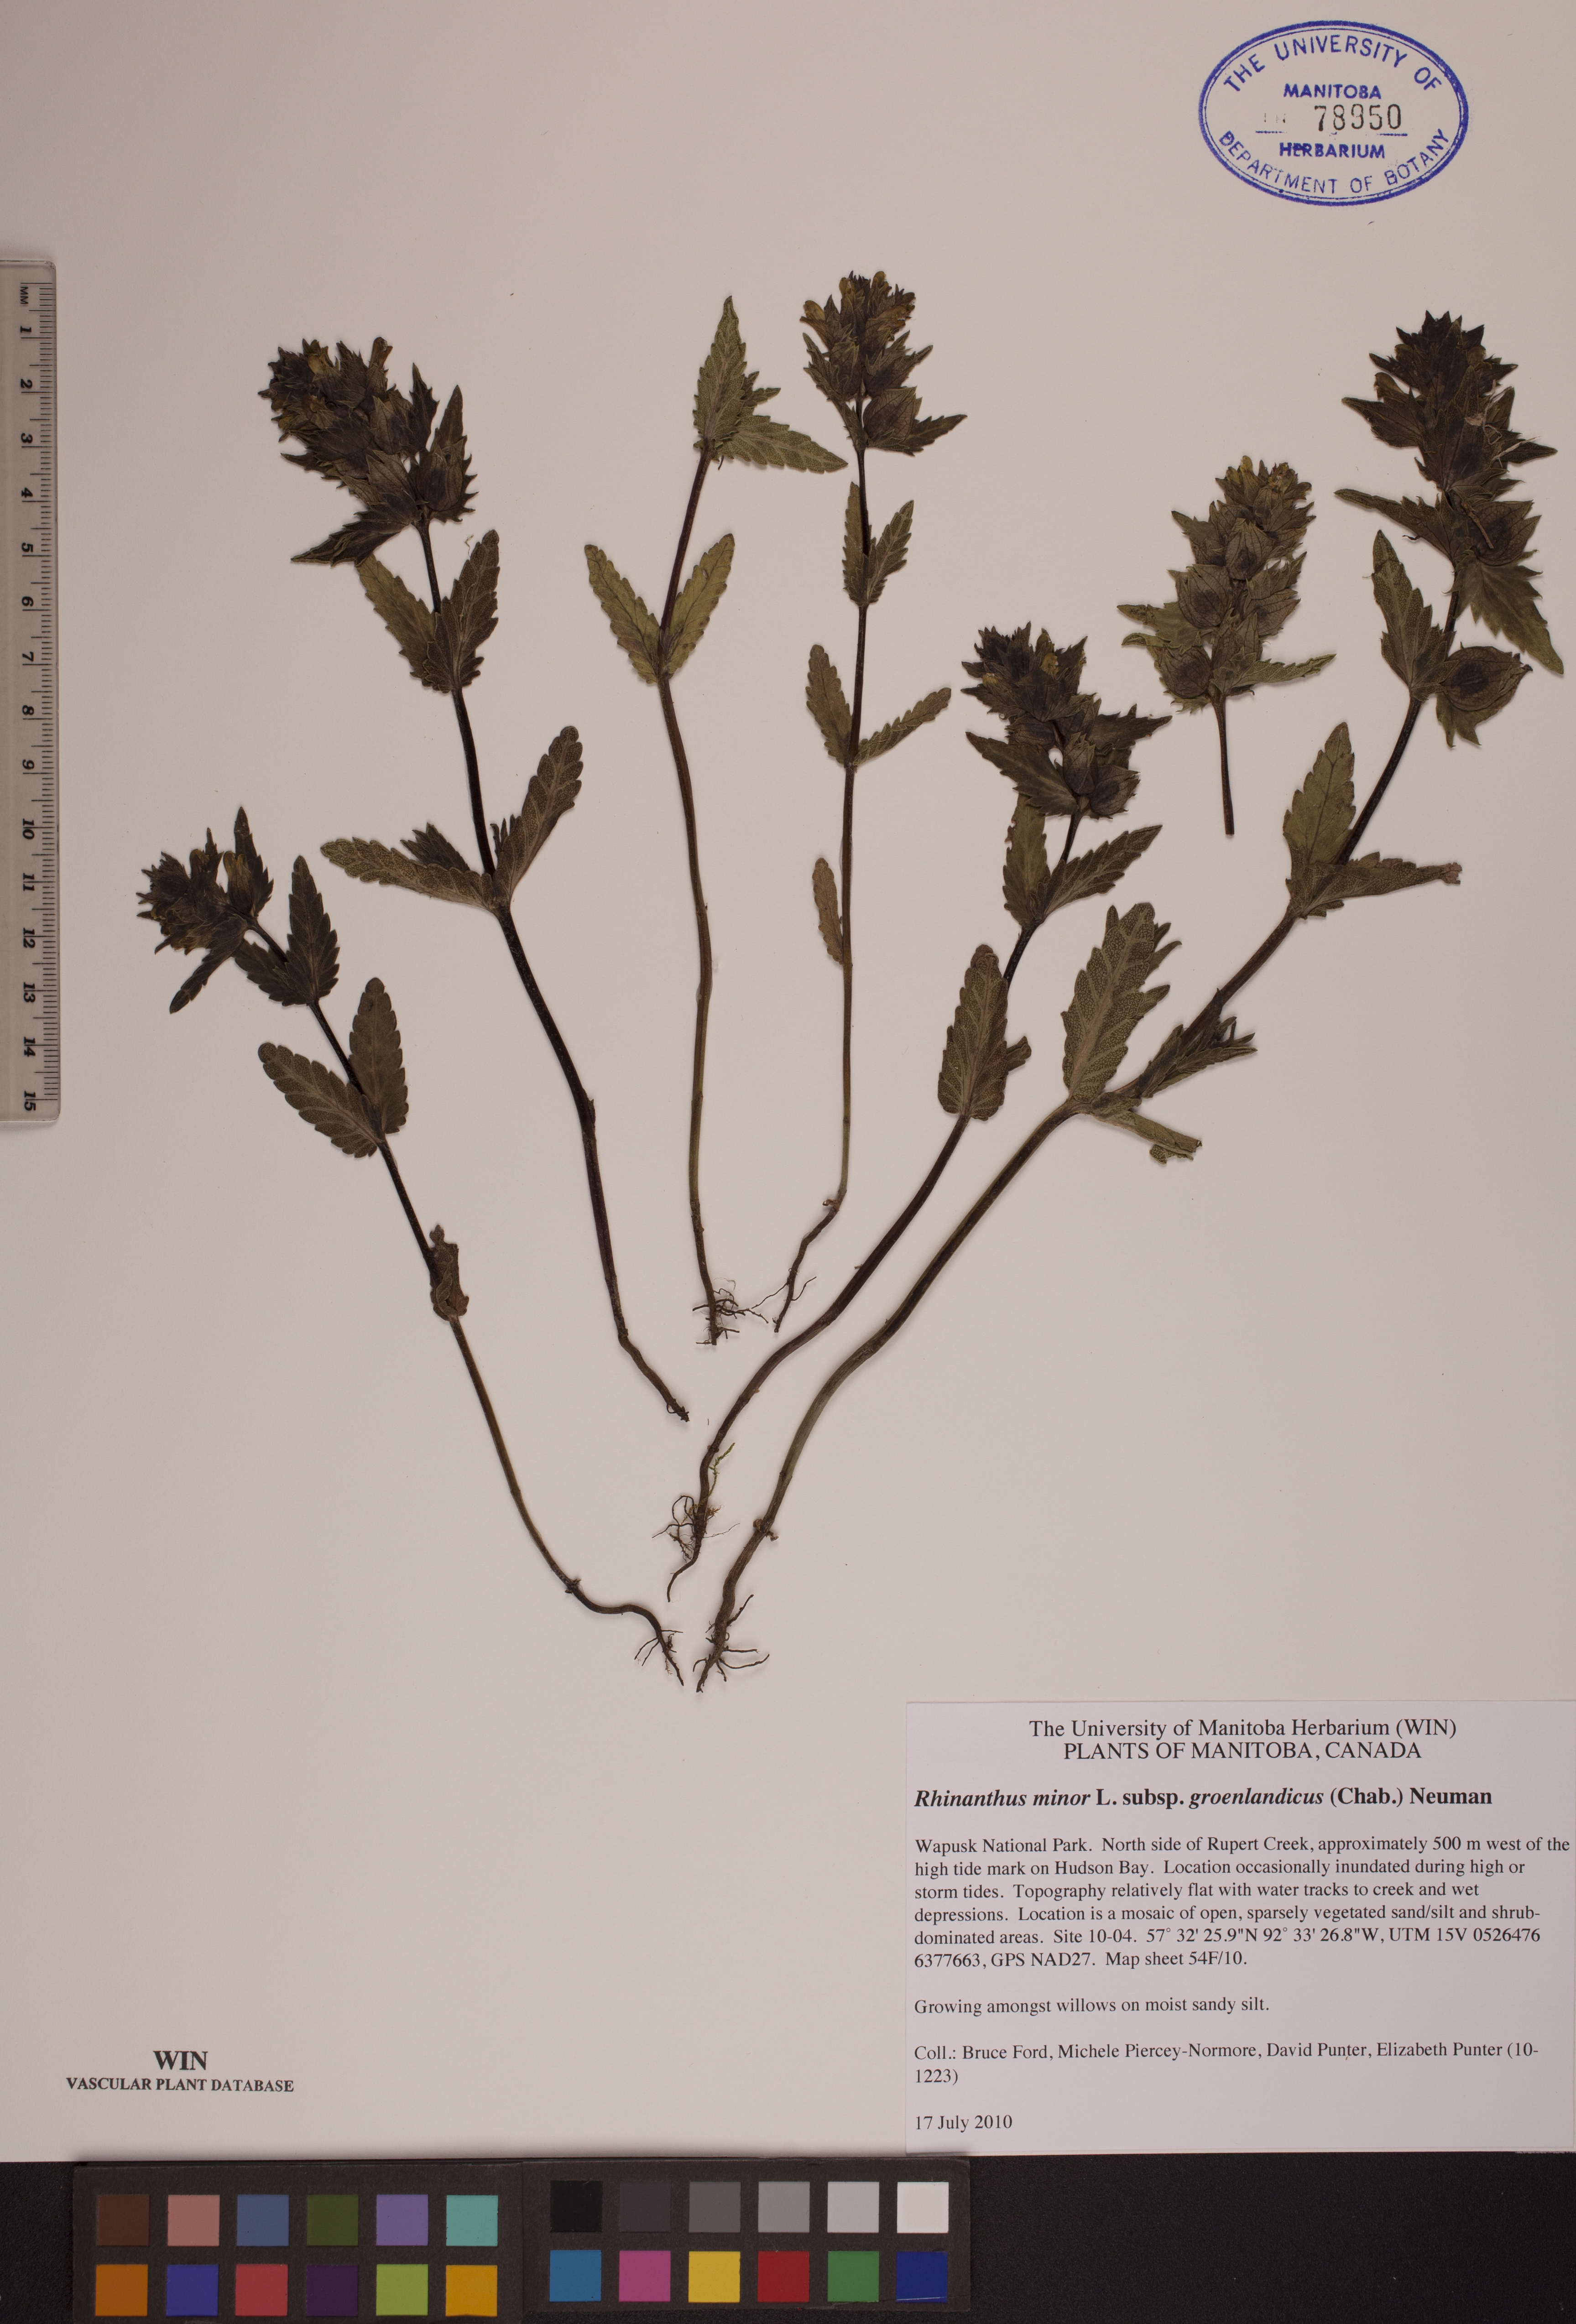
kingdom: Plantae
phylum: Tracheophyta
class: Magnoliopsida
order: Lamiales
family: Orobanchaceae
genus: Rhinanthus
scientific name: Rhinanthus groenlandicus
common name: Little yellow rattle
